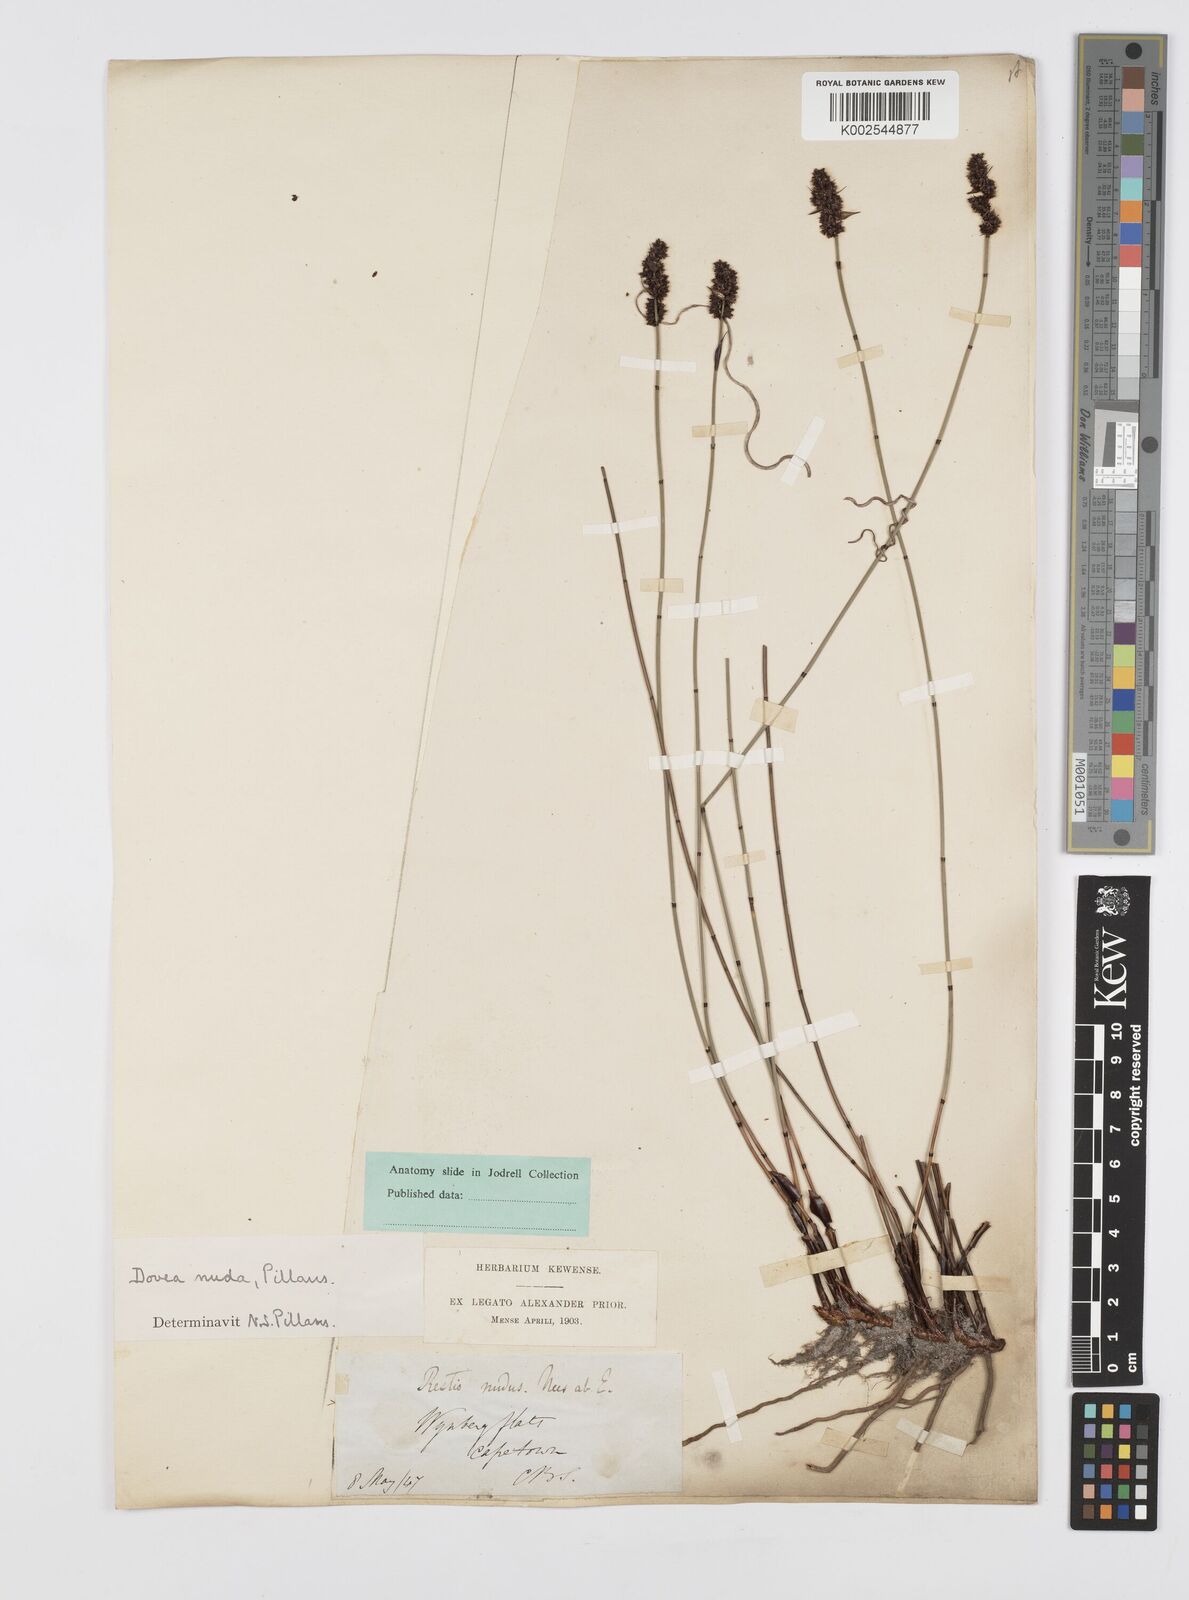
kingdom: Plantae
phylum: Tracheophyta
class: Liliopsida
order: Poales
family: Restionaceae
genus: Elegia
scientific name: Elegia nuda
